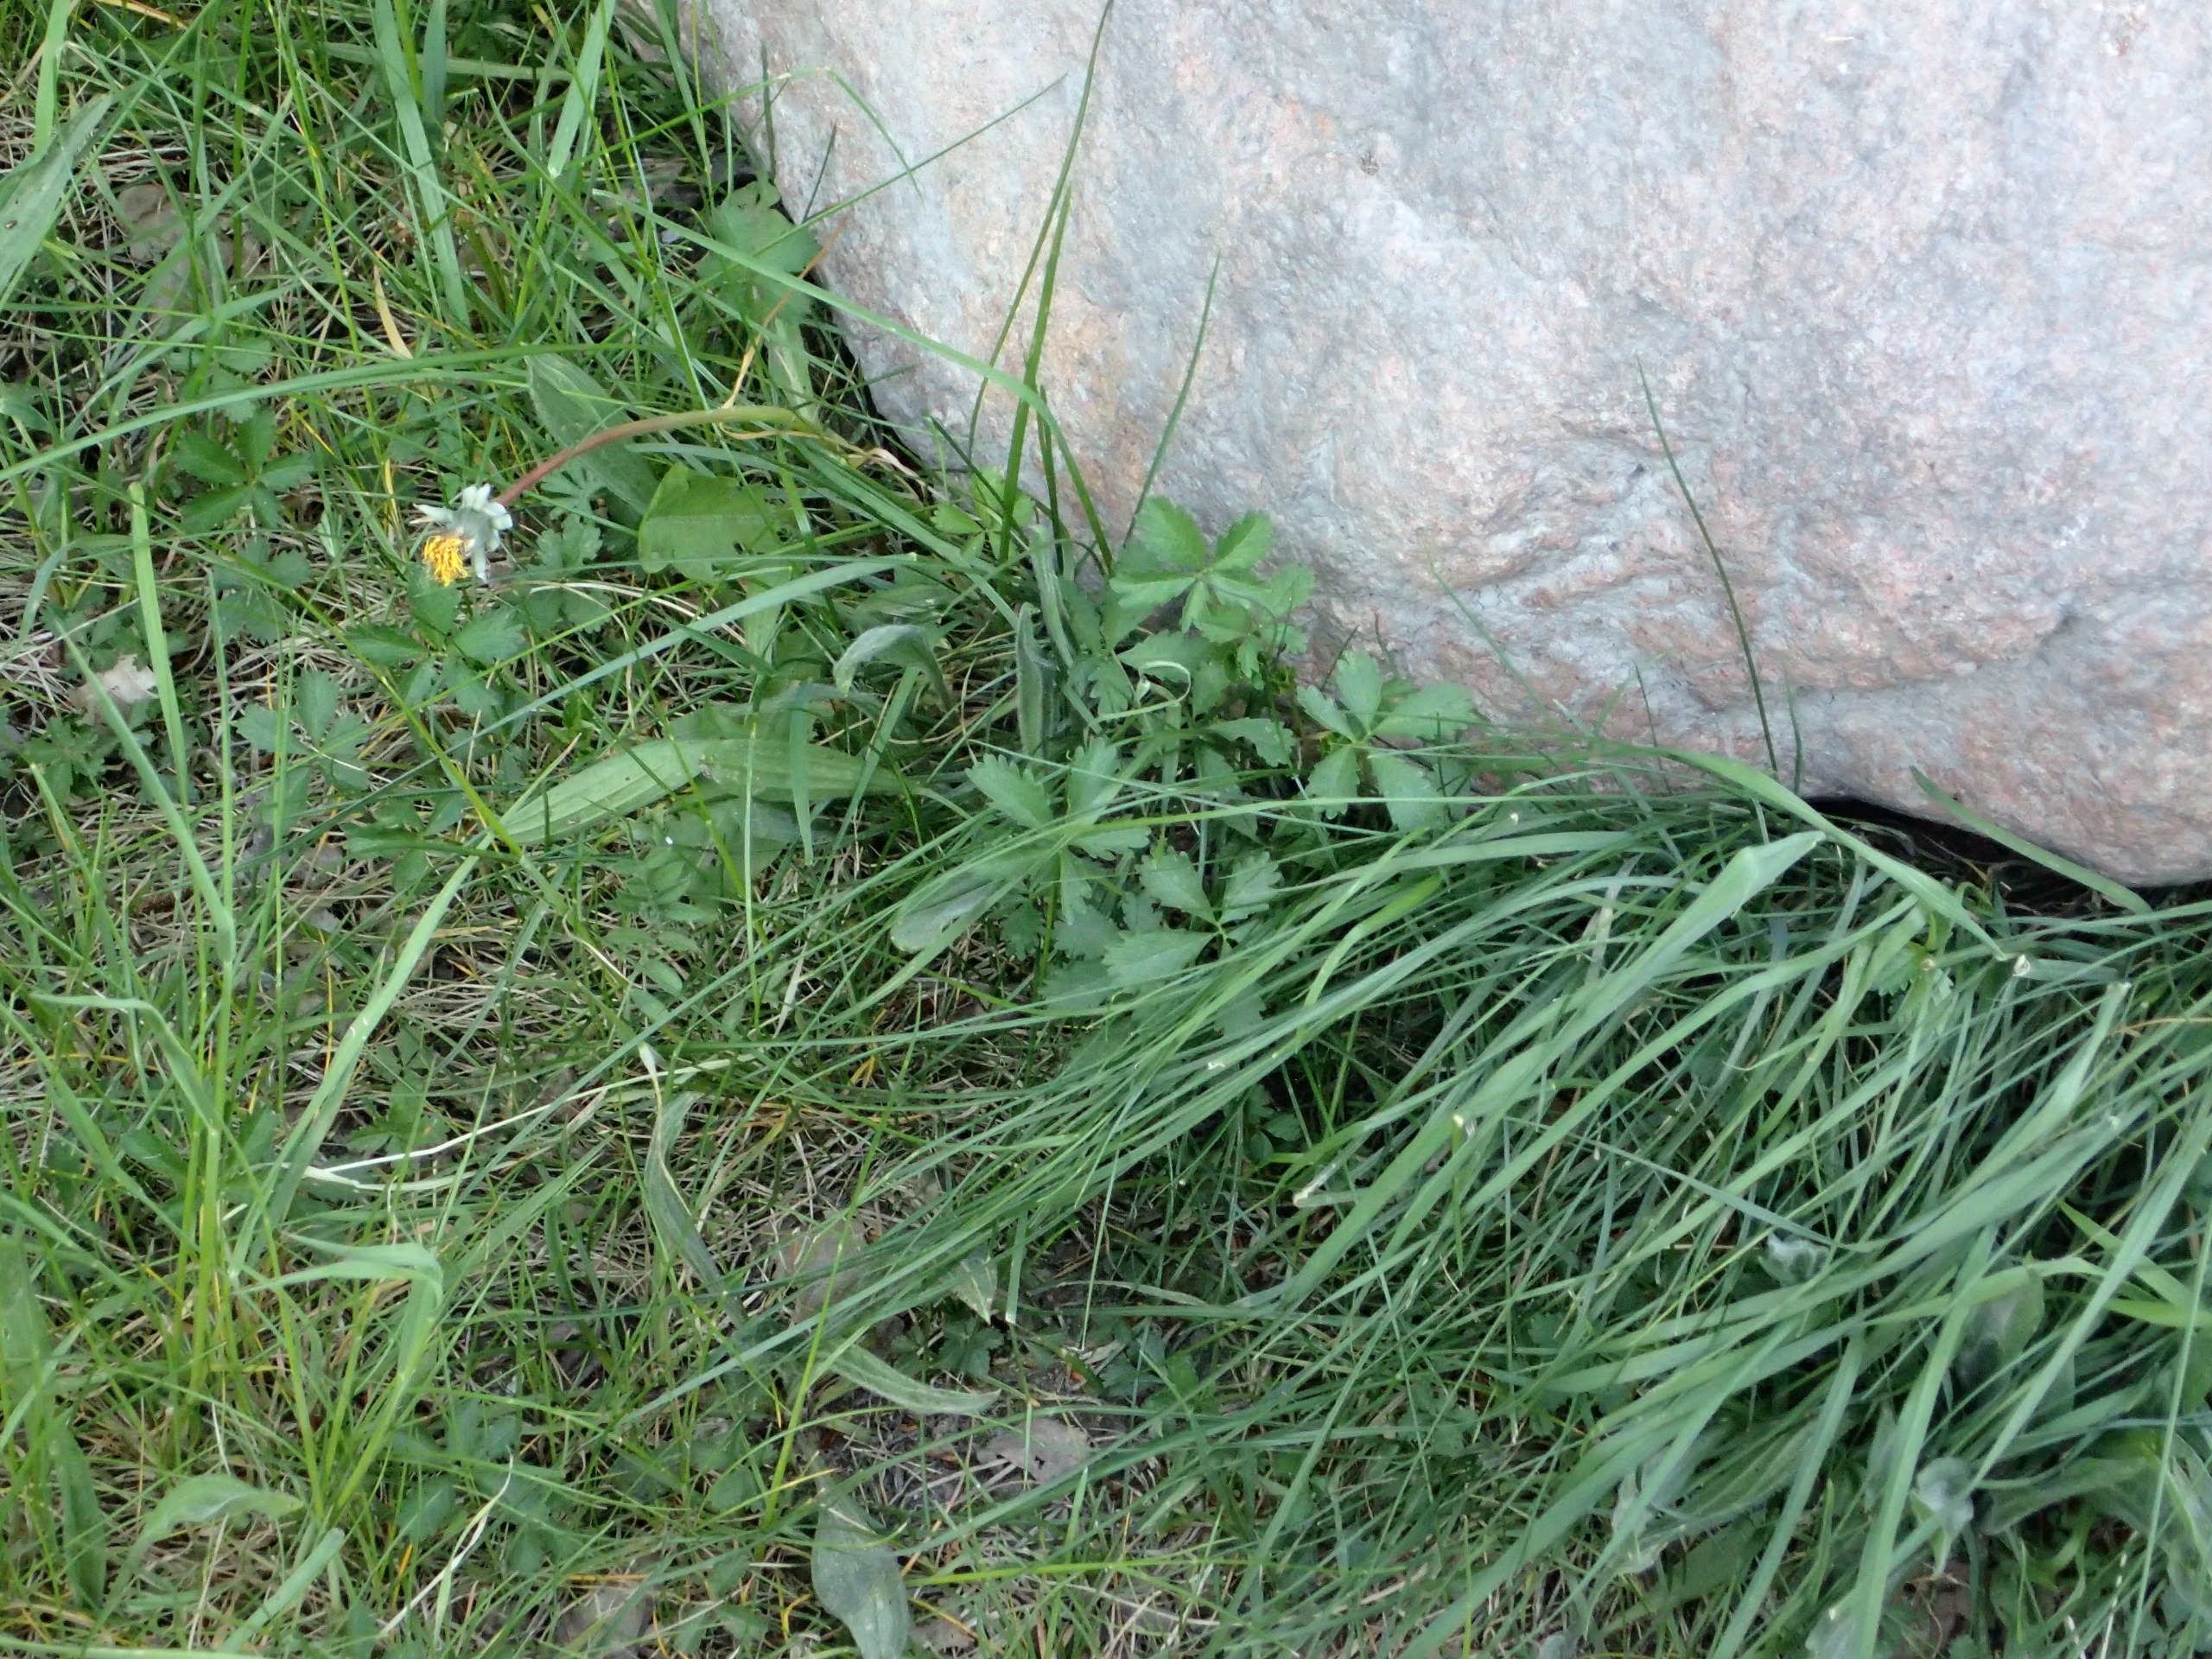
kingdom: Plantae
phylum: Tracheophyta
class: Magnoliopsida
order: Rosales
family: Rosaceae
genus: Potentilla
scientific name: Potentilla reptans
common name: Krybende potentil
